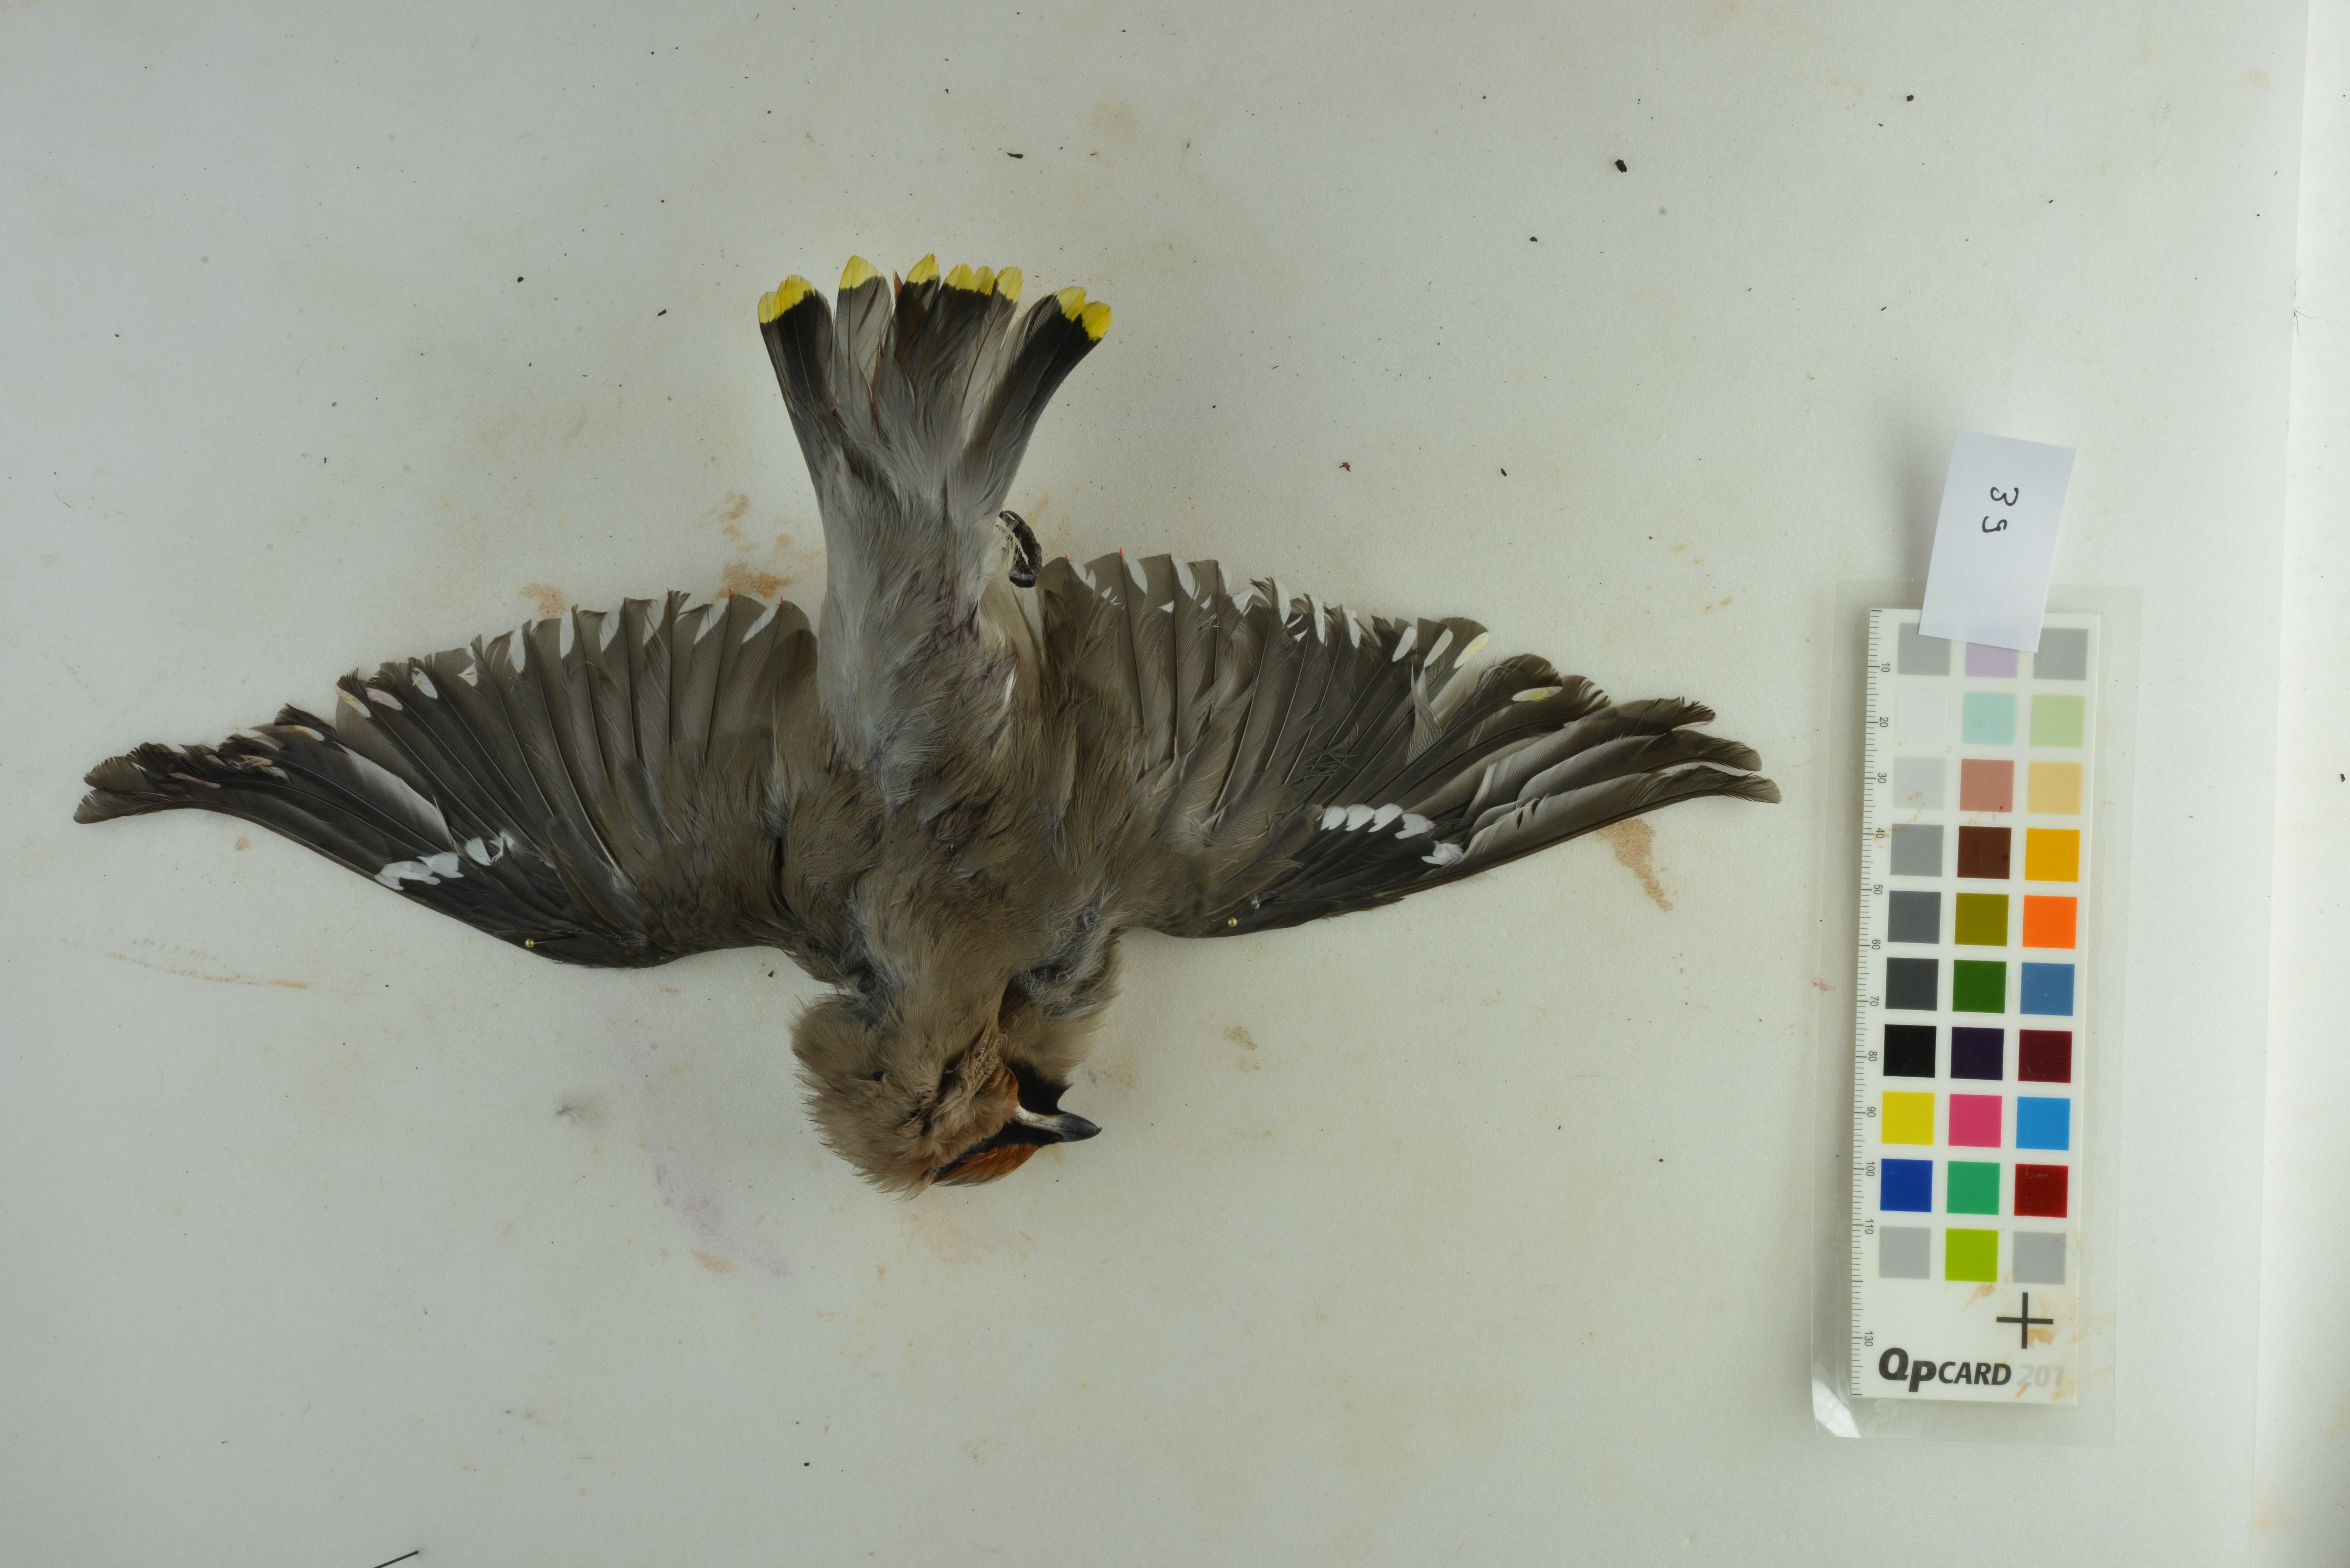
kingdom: Animalia
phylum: Chordata
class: Aves
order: Passeriformes
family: Bombycillidae
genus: Bombycilla
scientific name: Bombycilla garrulus
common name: Bohemian waxwing
